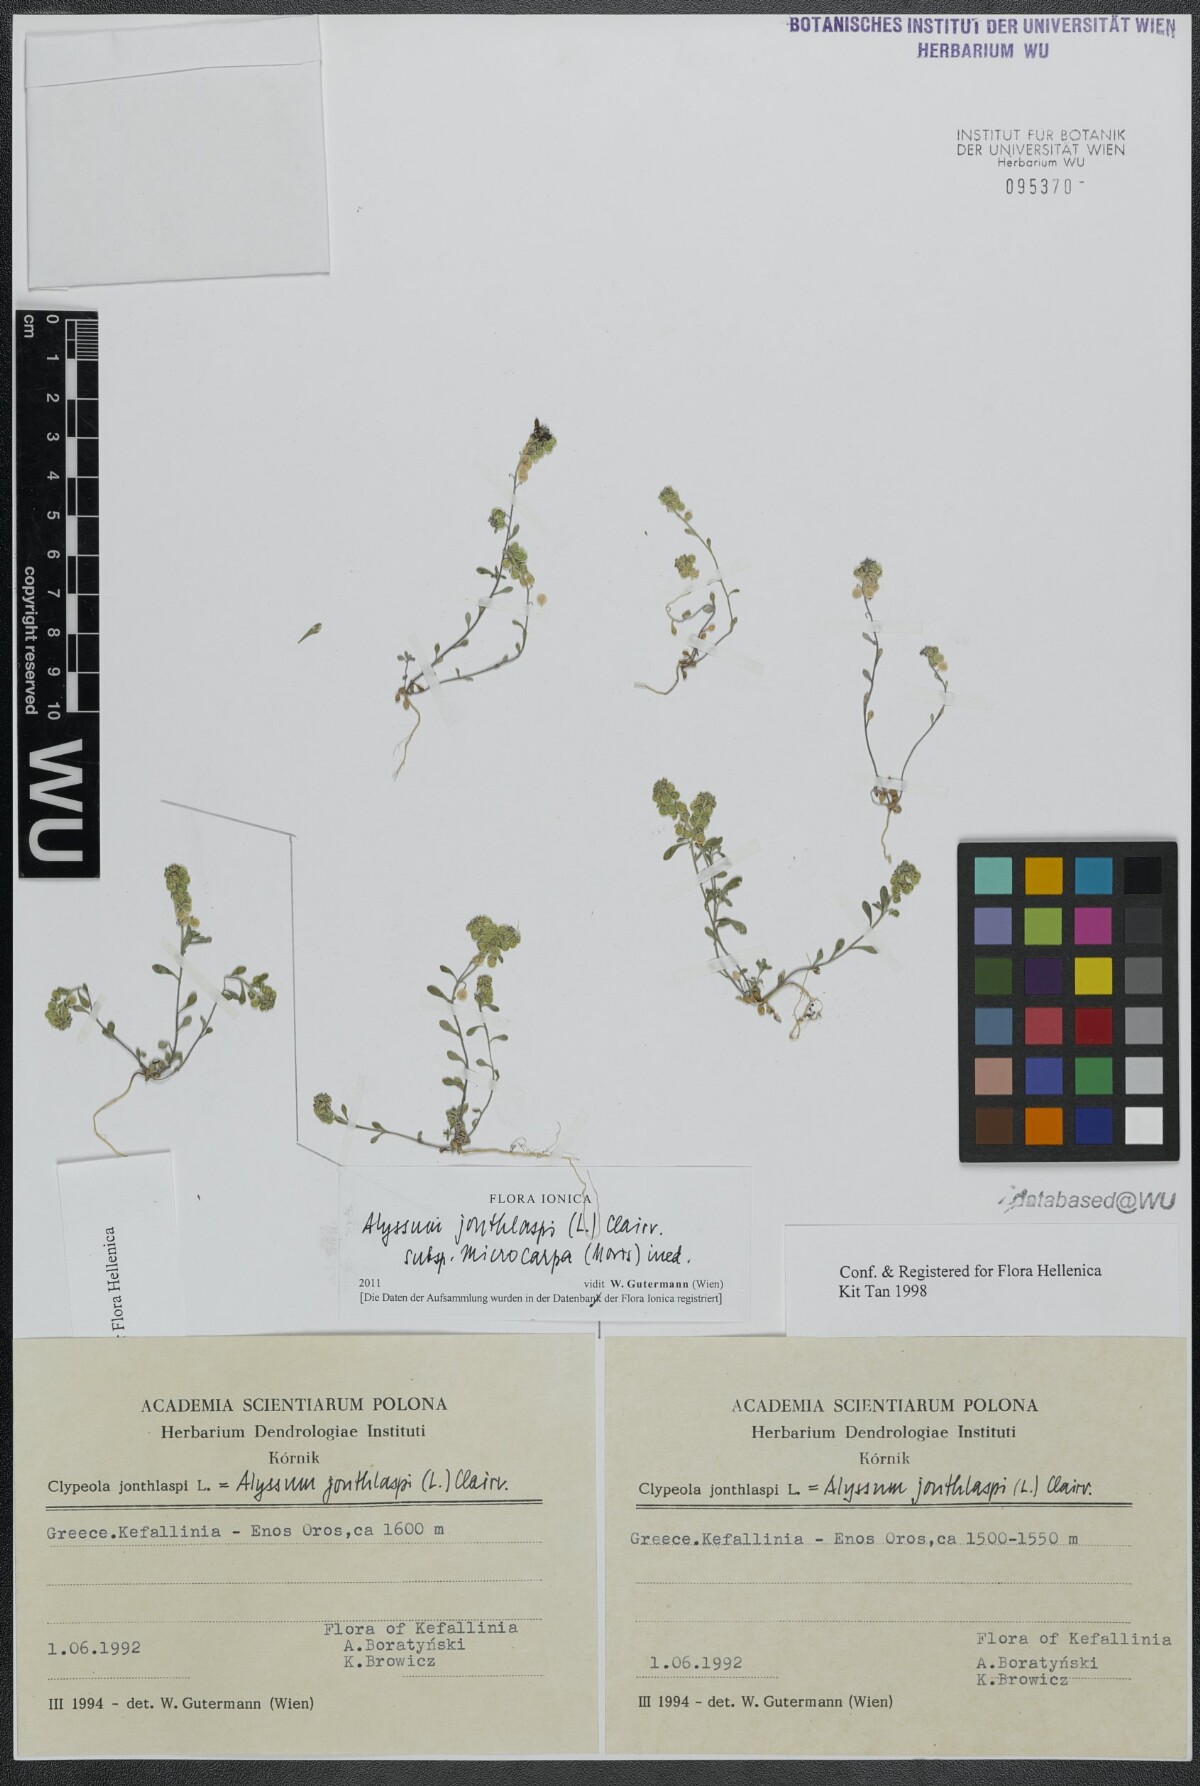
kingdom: Plantae
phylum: Tracheophyta
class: Magnoliopsida
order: Brassicales
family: Brassicaceae
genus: Clypeola
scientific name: Clypeola jonthlaspi
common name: Disk cress
